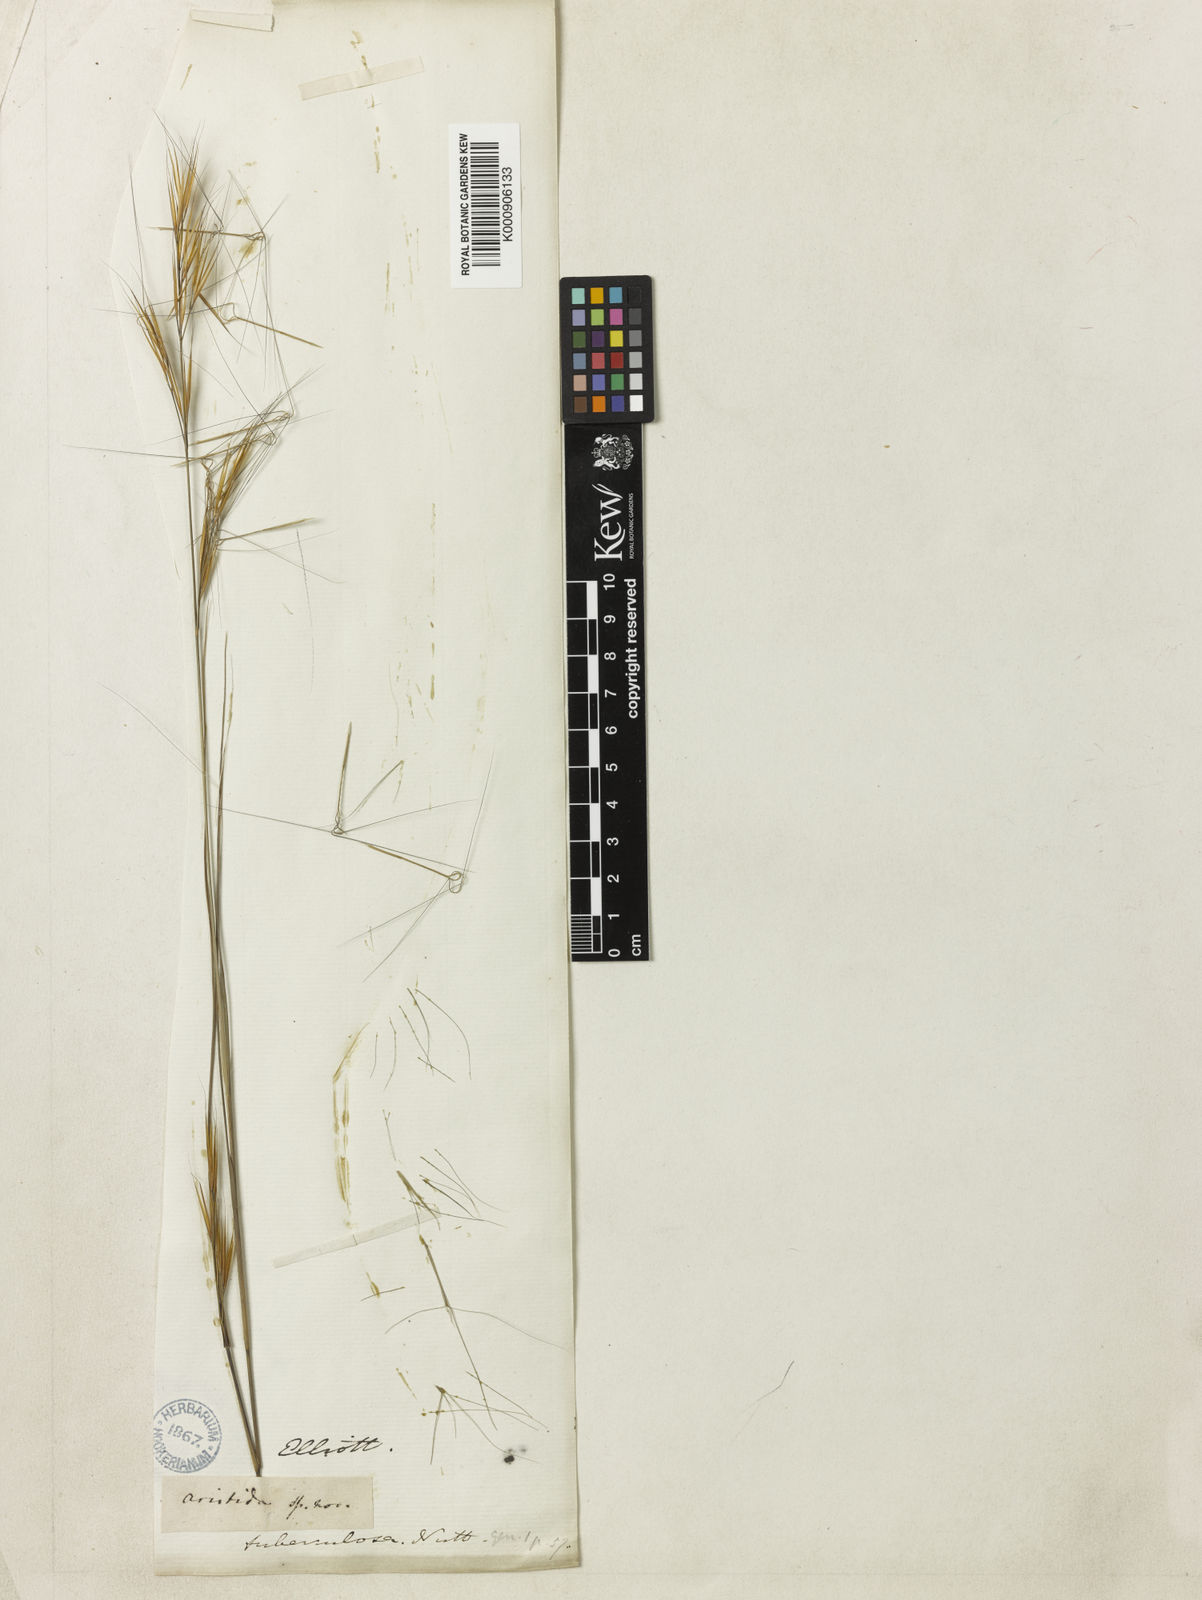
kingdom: Plantae
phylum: Tracheophyta
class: Liliopsida
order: Poales
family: Poaceae
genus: Aristida
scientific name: Aristida tuberculosa
